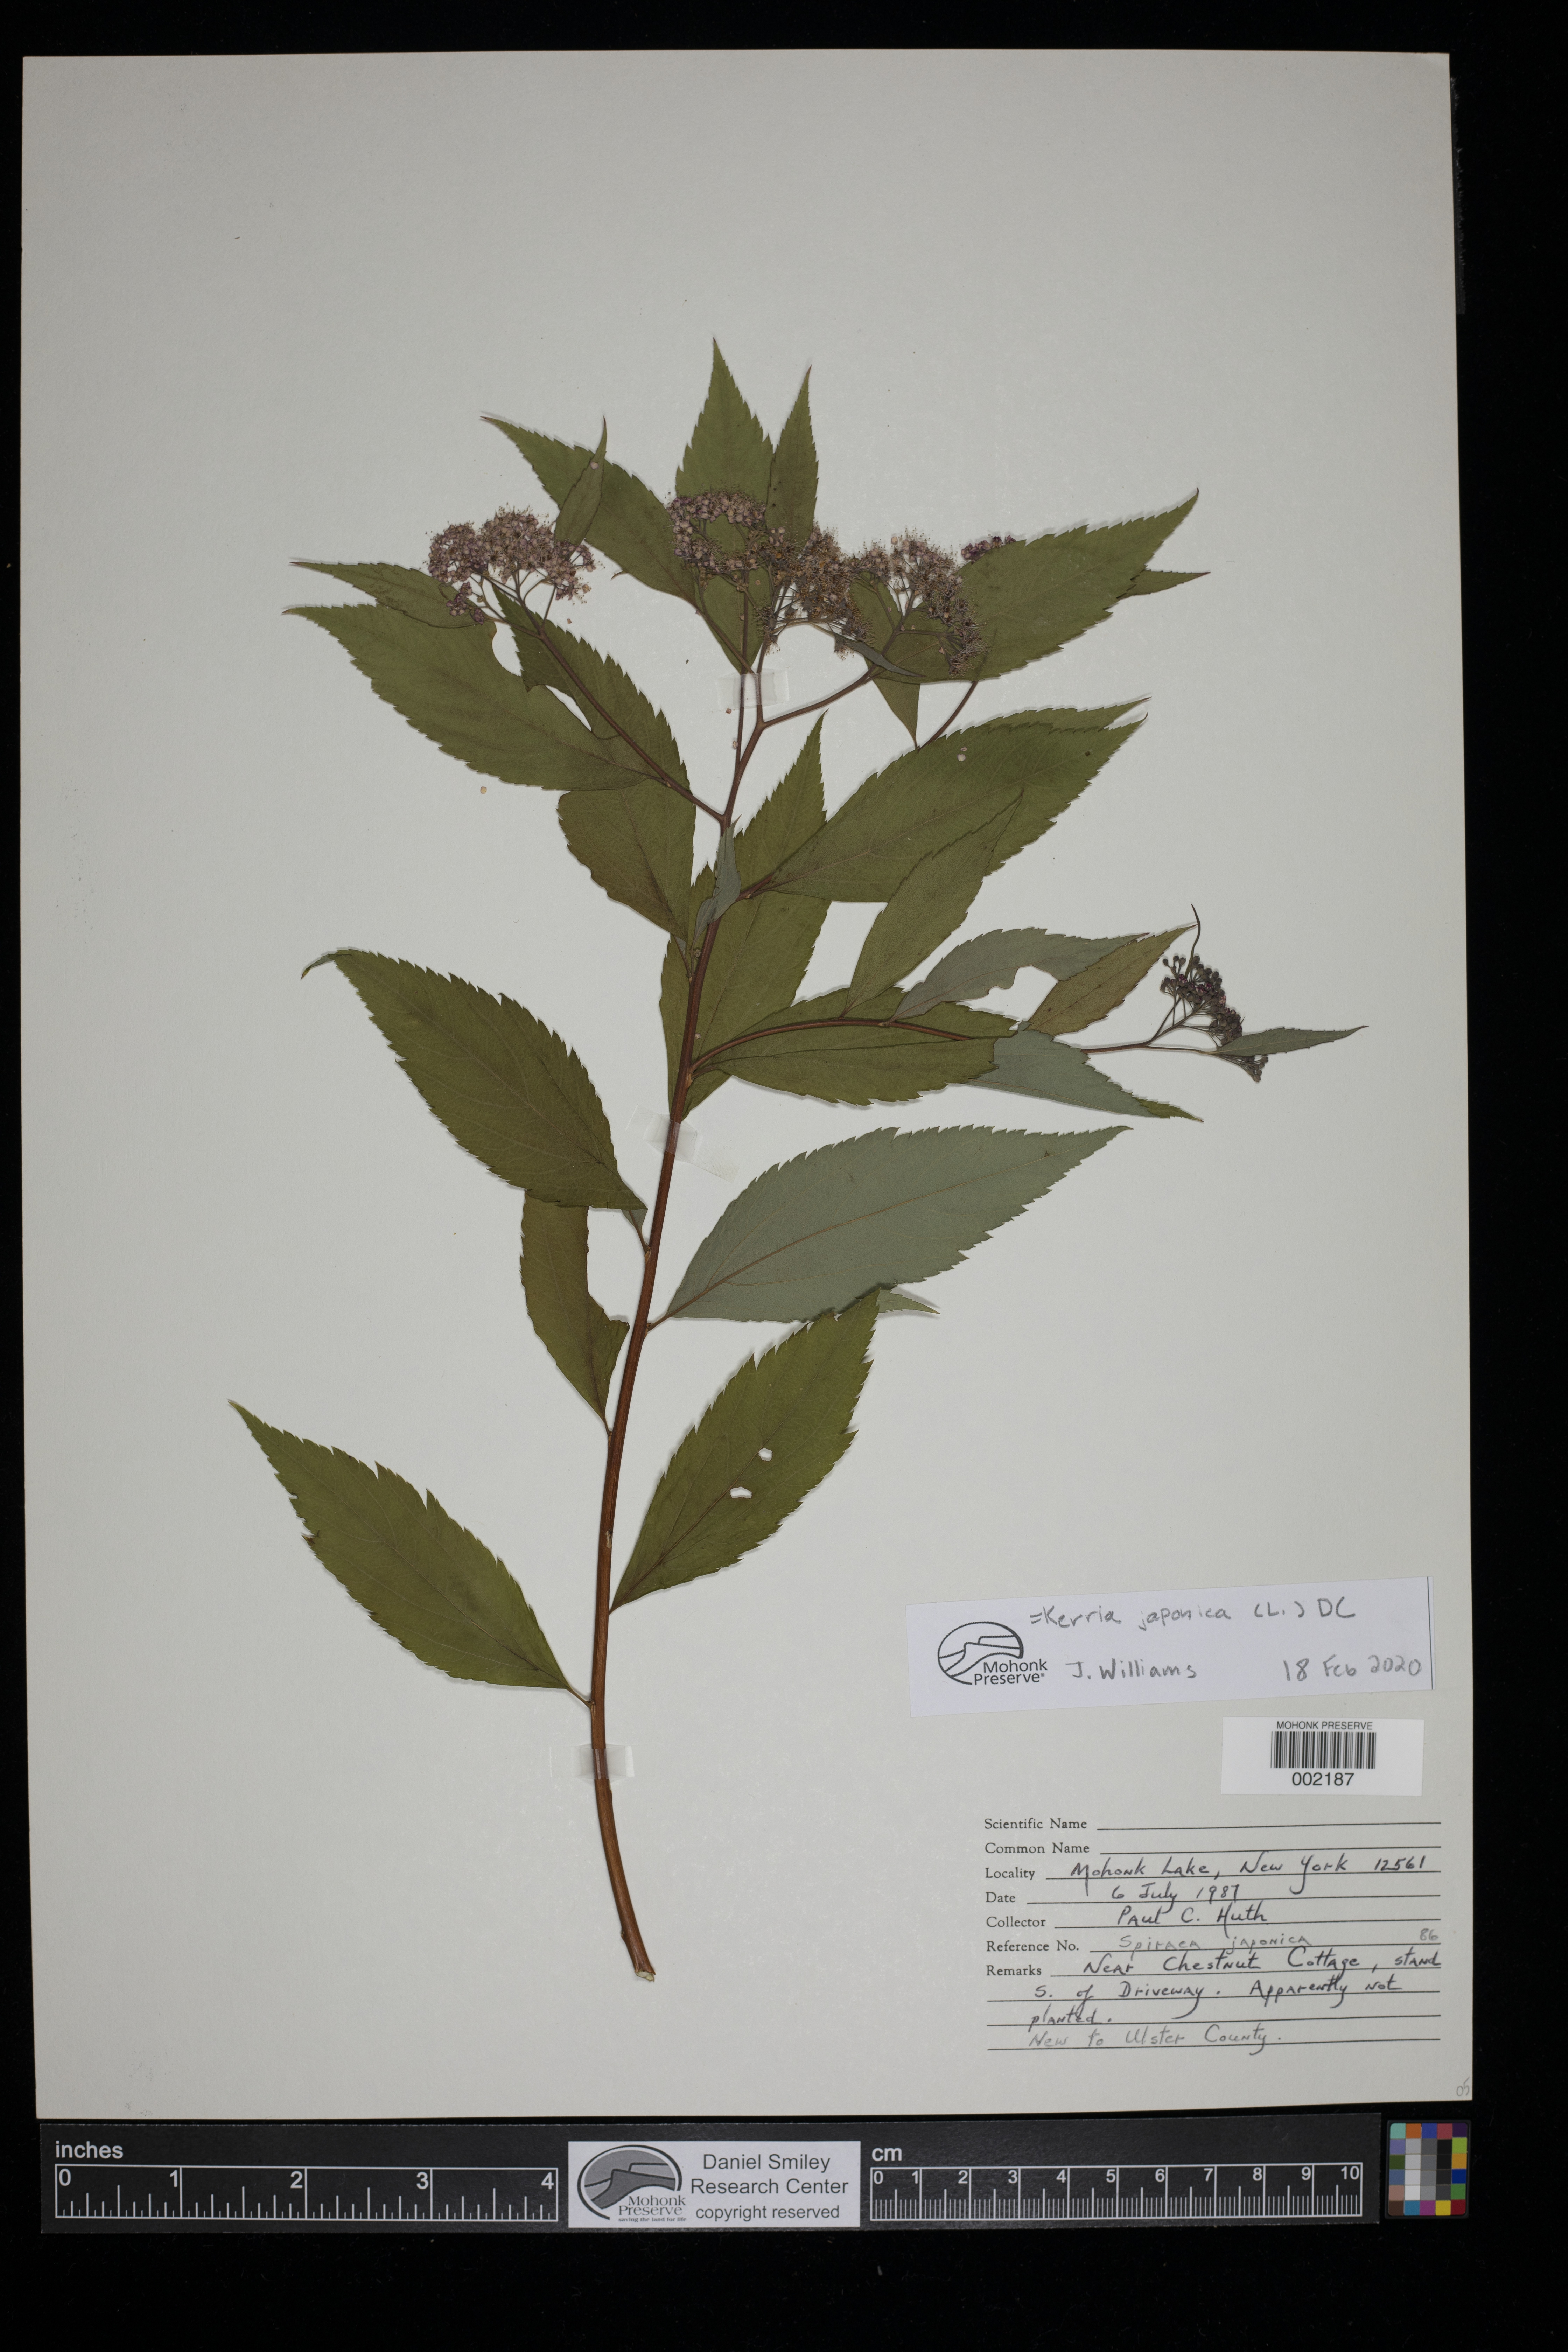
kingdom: Plantae
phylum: Tracheophyta
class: Magnoliopsida
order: Rosales
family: Rosaceae
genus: Kerria
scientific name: Kerria japonica
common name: Japanese kerria
